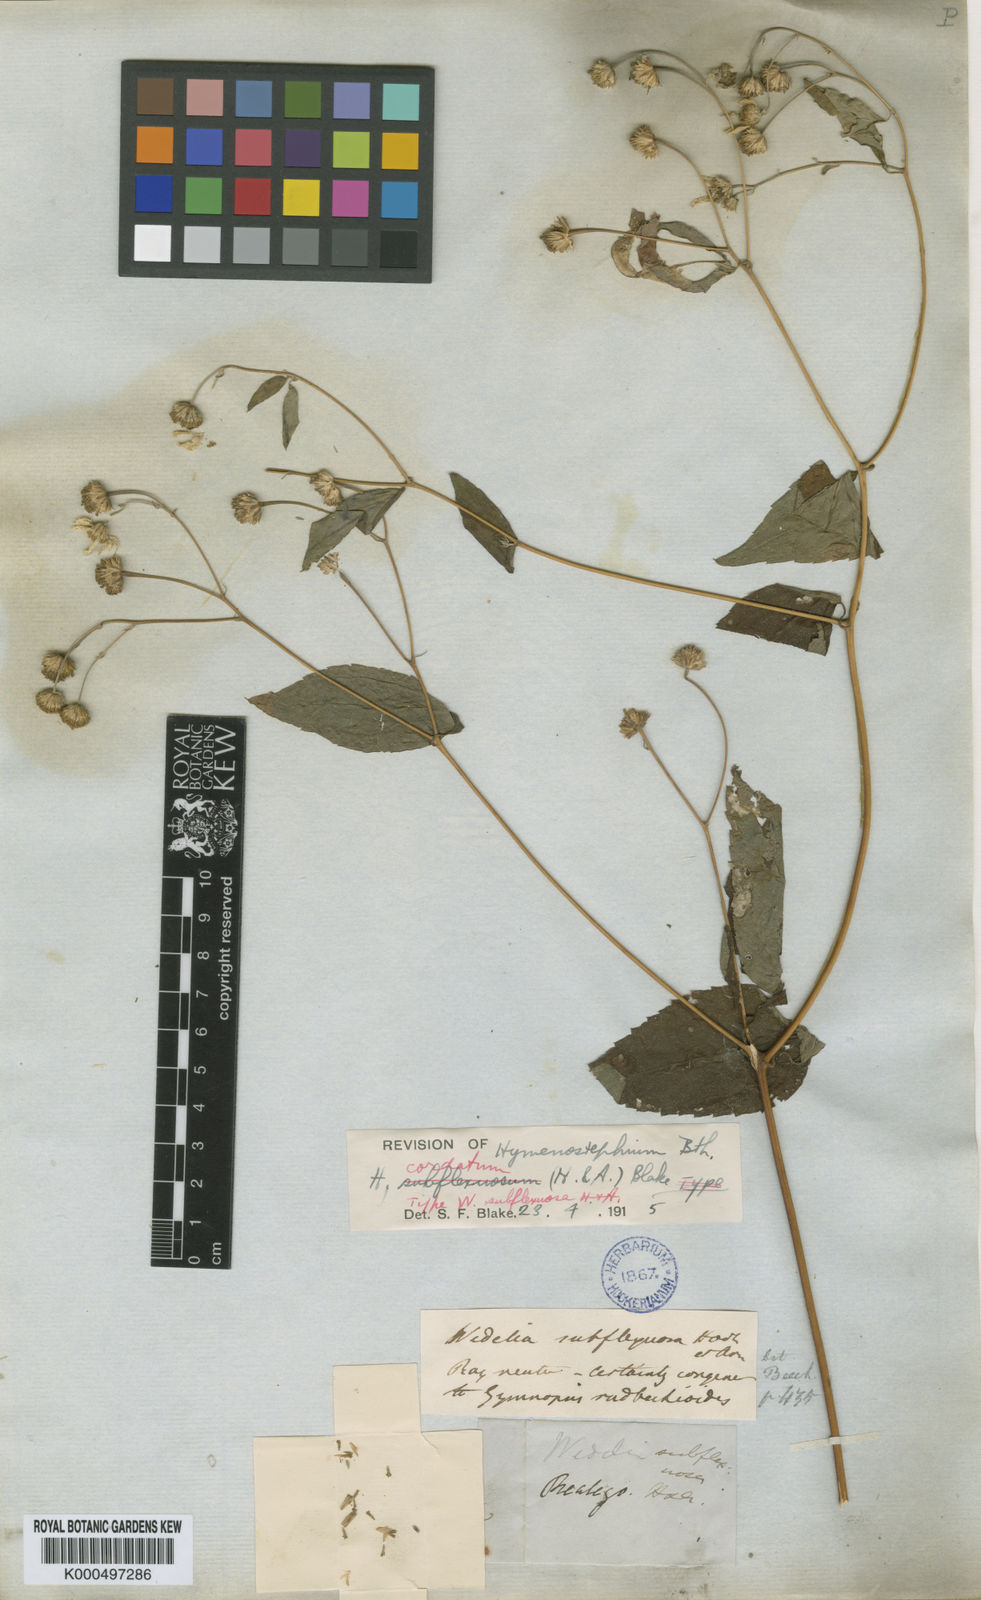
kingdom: Plantae
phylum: Tracheophyta
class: Magnoliopsida
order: Asterales
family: Asteraceae
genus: Hymenostephium
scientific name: Hymenostephium cordatum
